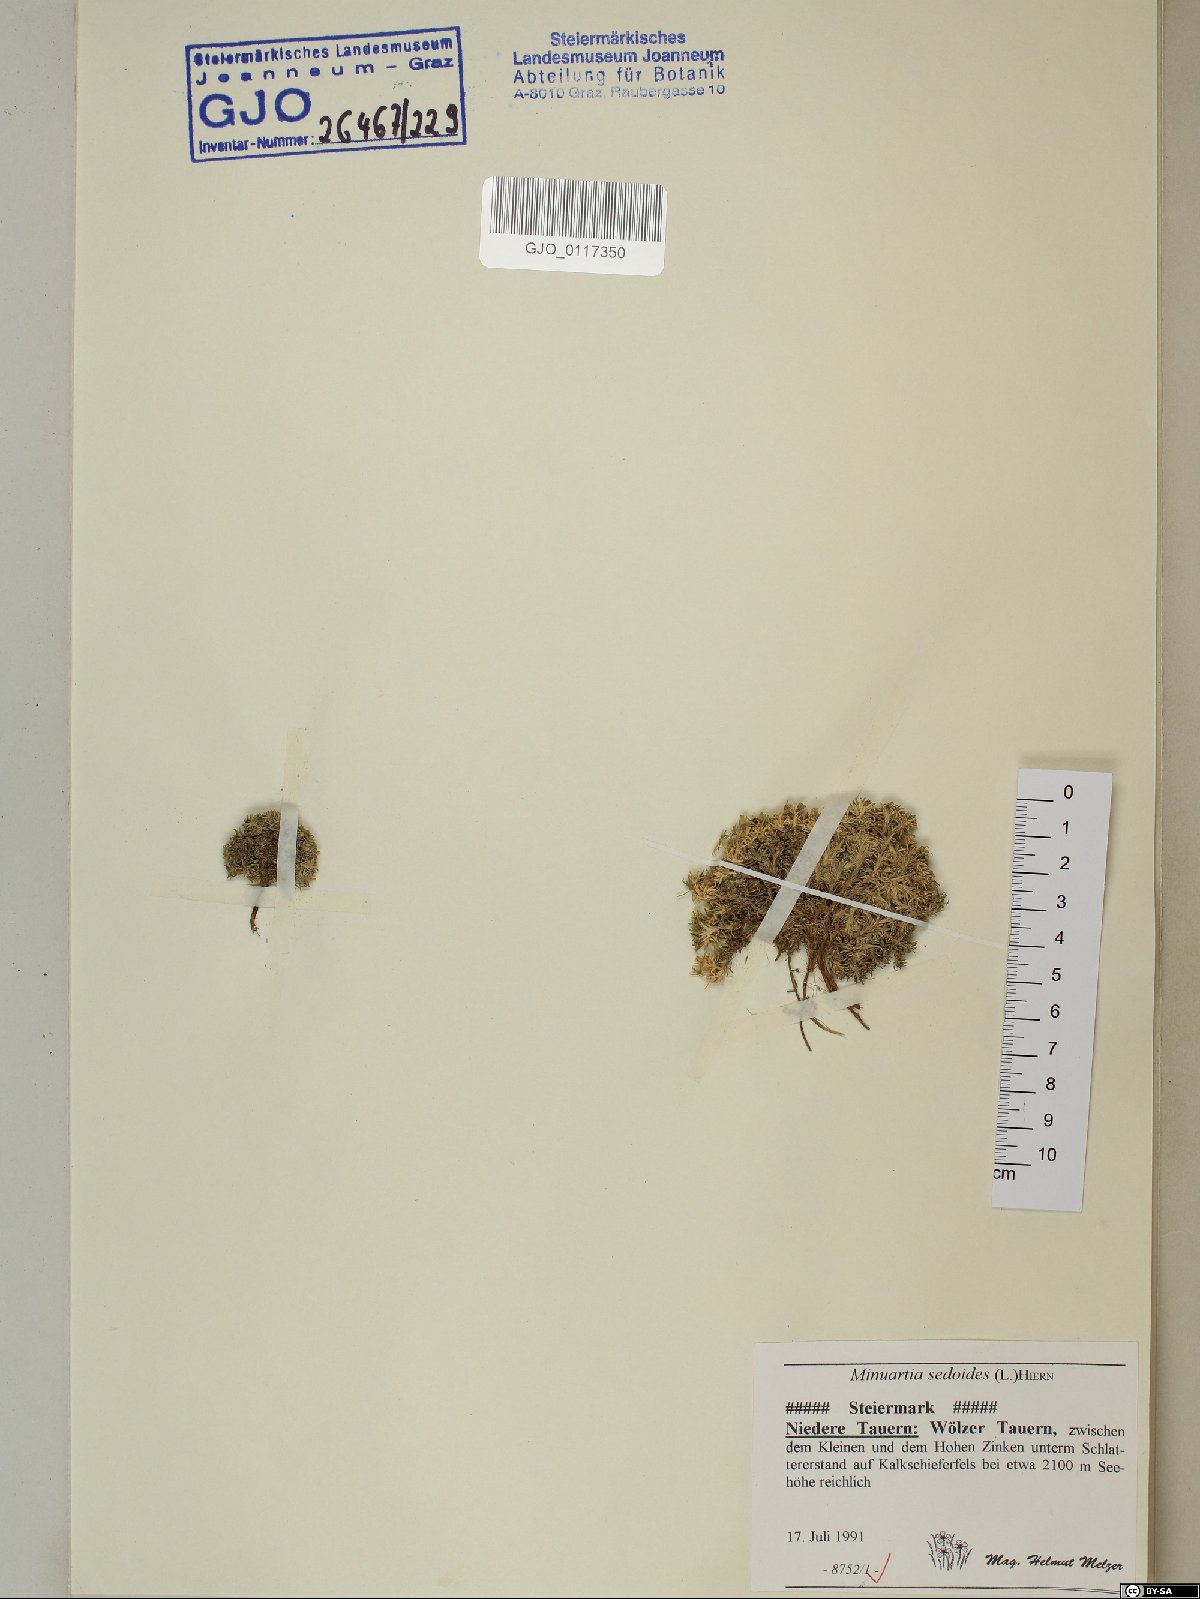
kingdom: Plantae
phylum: Tracheophyta
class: Magnoliopsida
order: Caryophyllales
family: Caryophyllaceae
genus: Cherleria
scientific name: Cherleria sedoides
